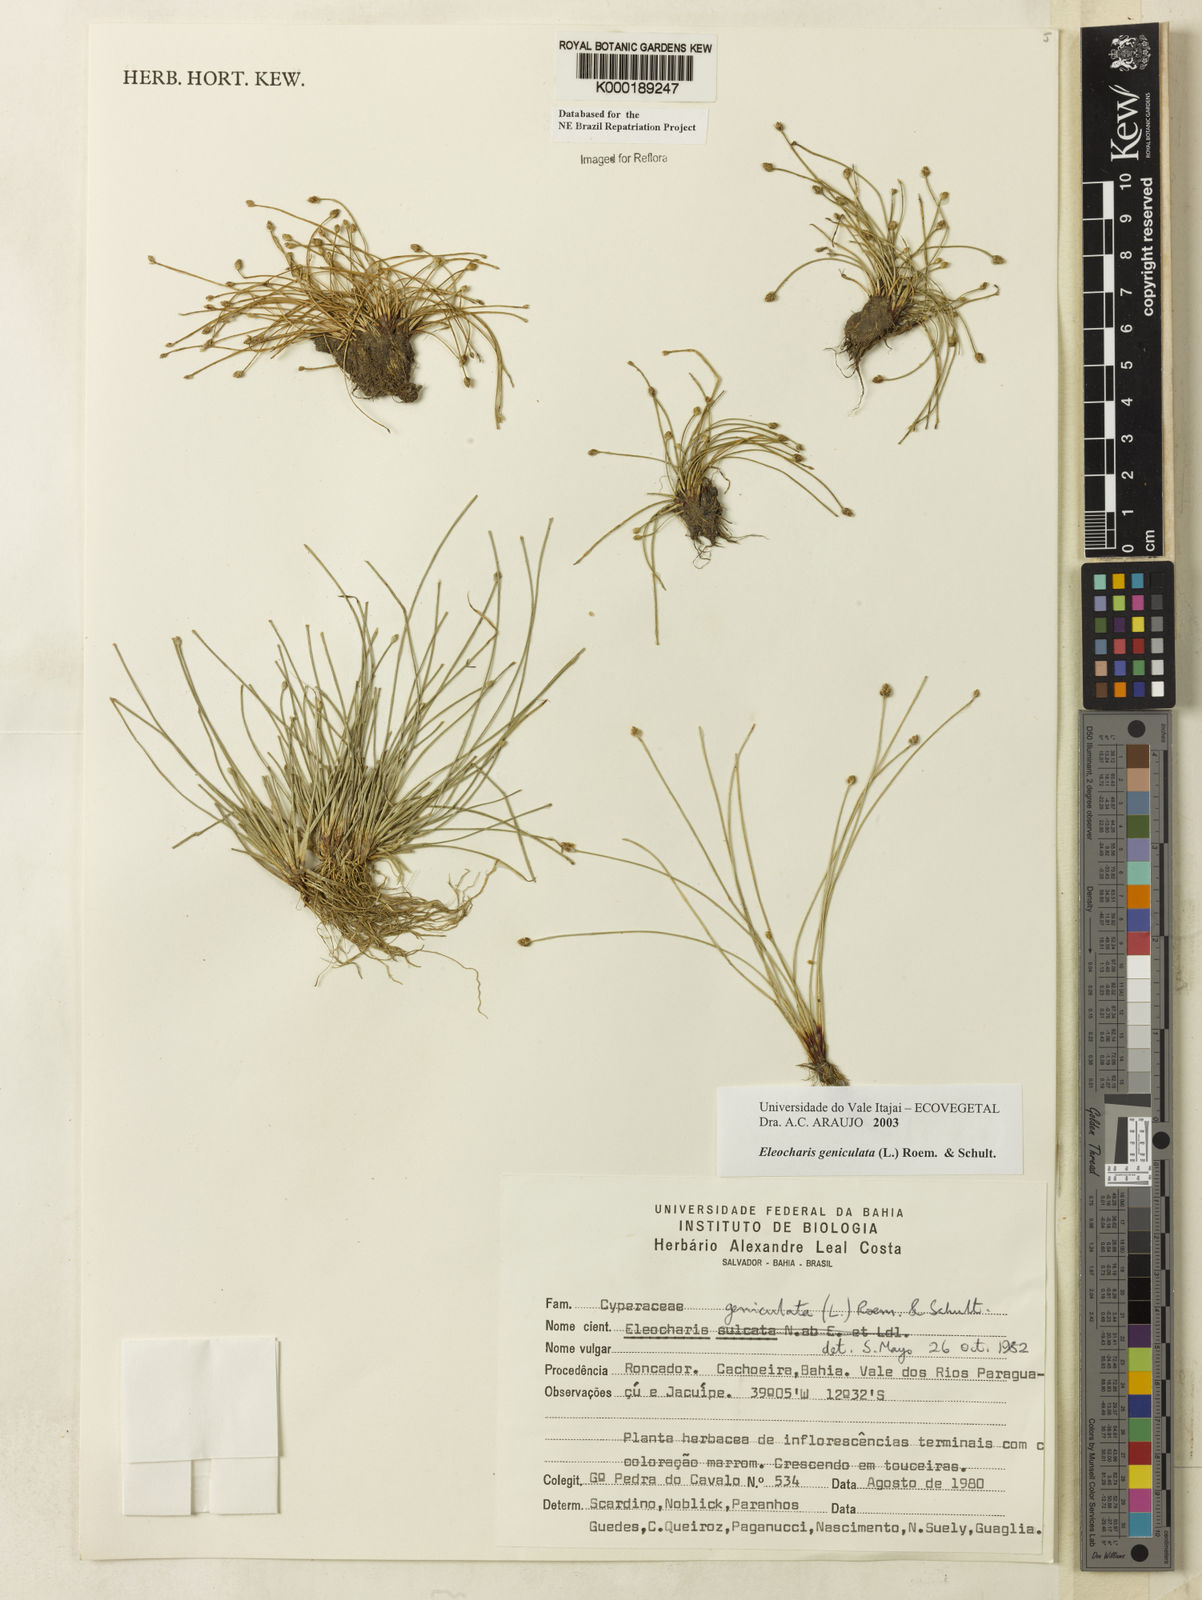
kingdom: Plantae
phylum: Tracheophyta
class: Liliopsida
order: Poales
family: Cyperaceae
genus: Eleocharis
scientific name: Eleocharis geniculata
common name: Canada spikesedge
